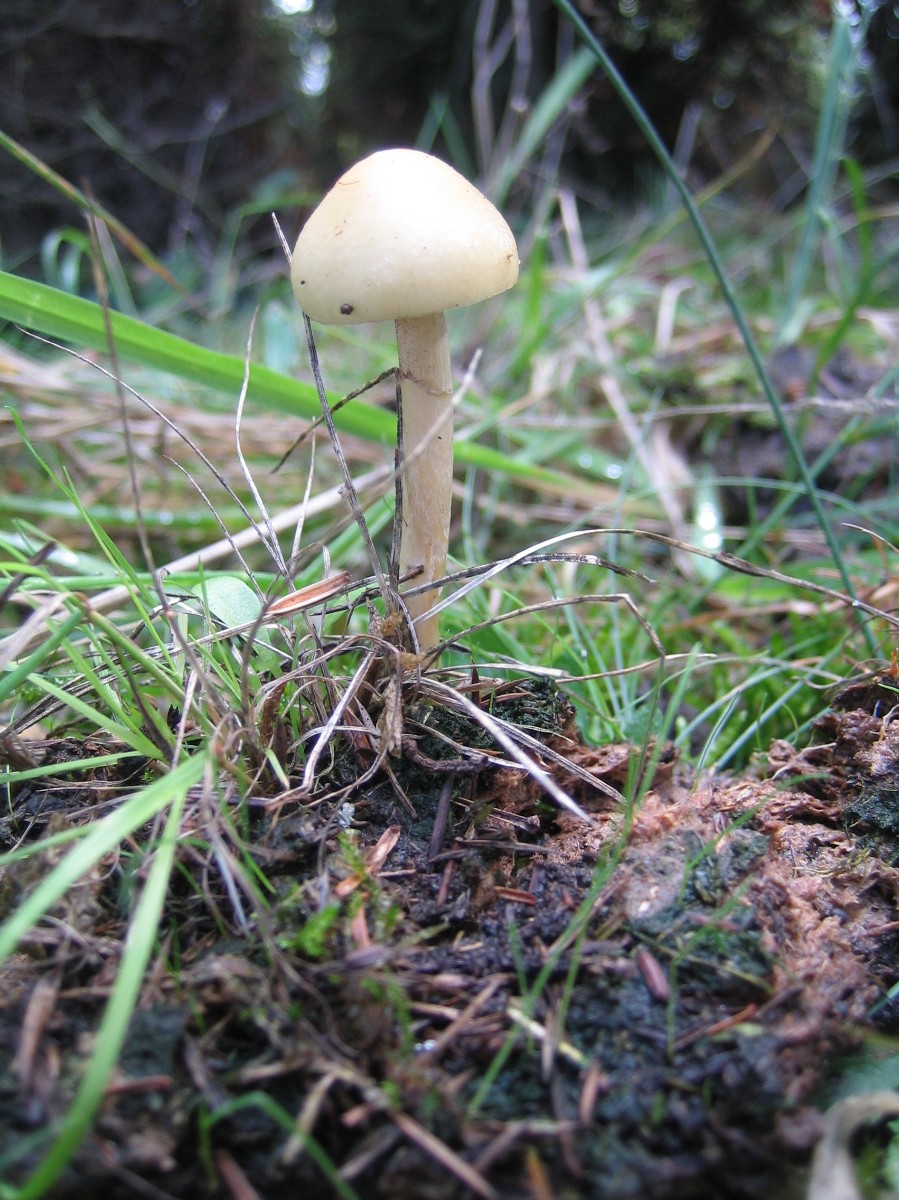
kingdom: Fungi
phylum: Basidiomycota
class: Agaricomycetes
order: Agaricales
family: Strophariaceae
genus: Protostropharia
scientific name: Protostropharia semiglobata
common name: halvkugleformet bredblad
